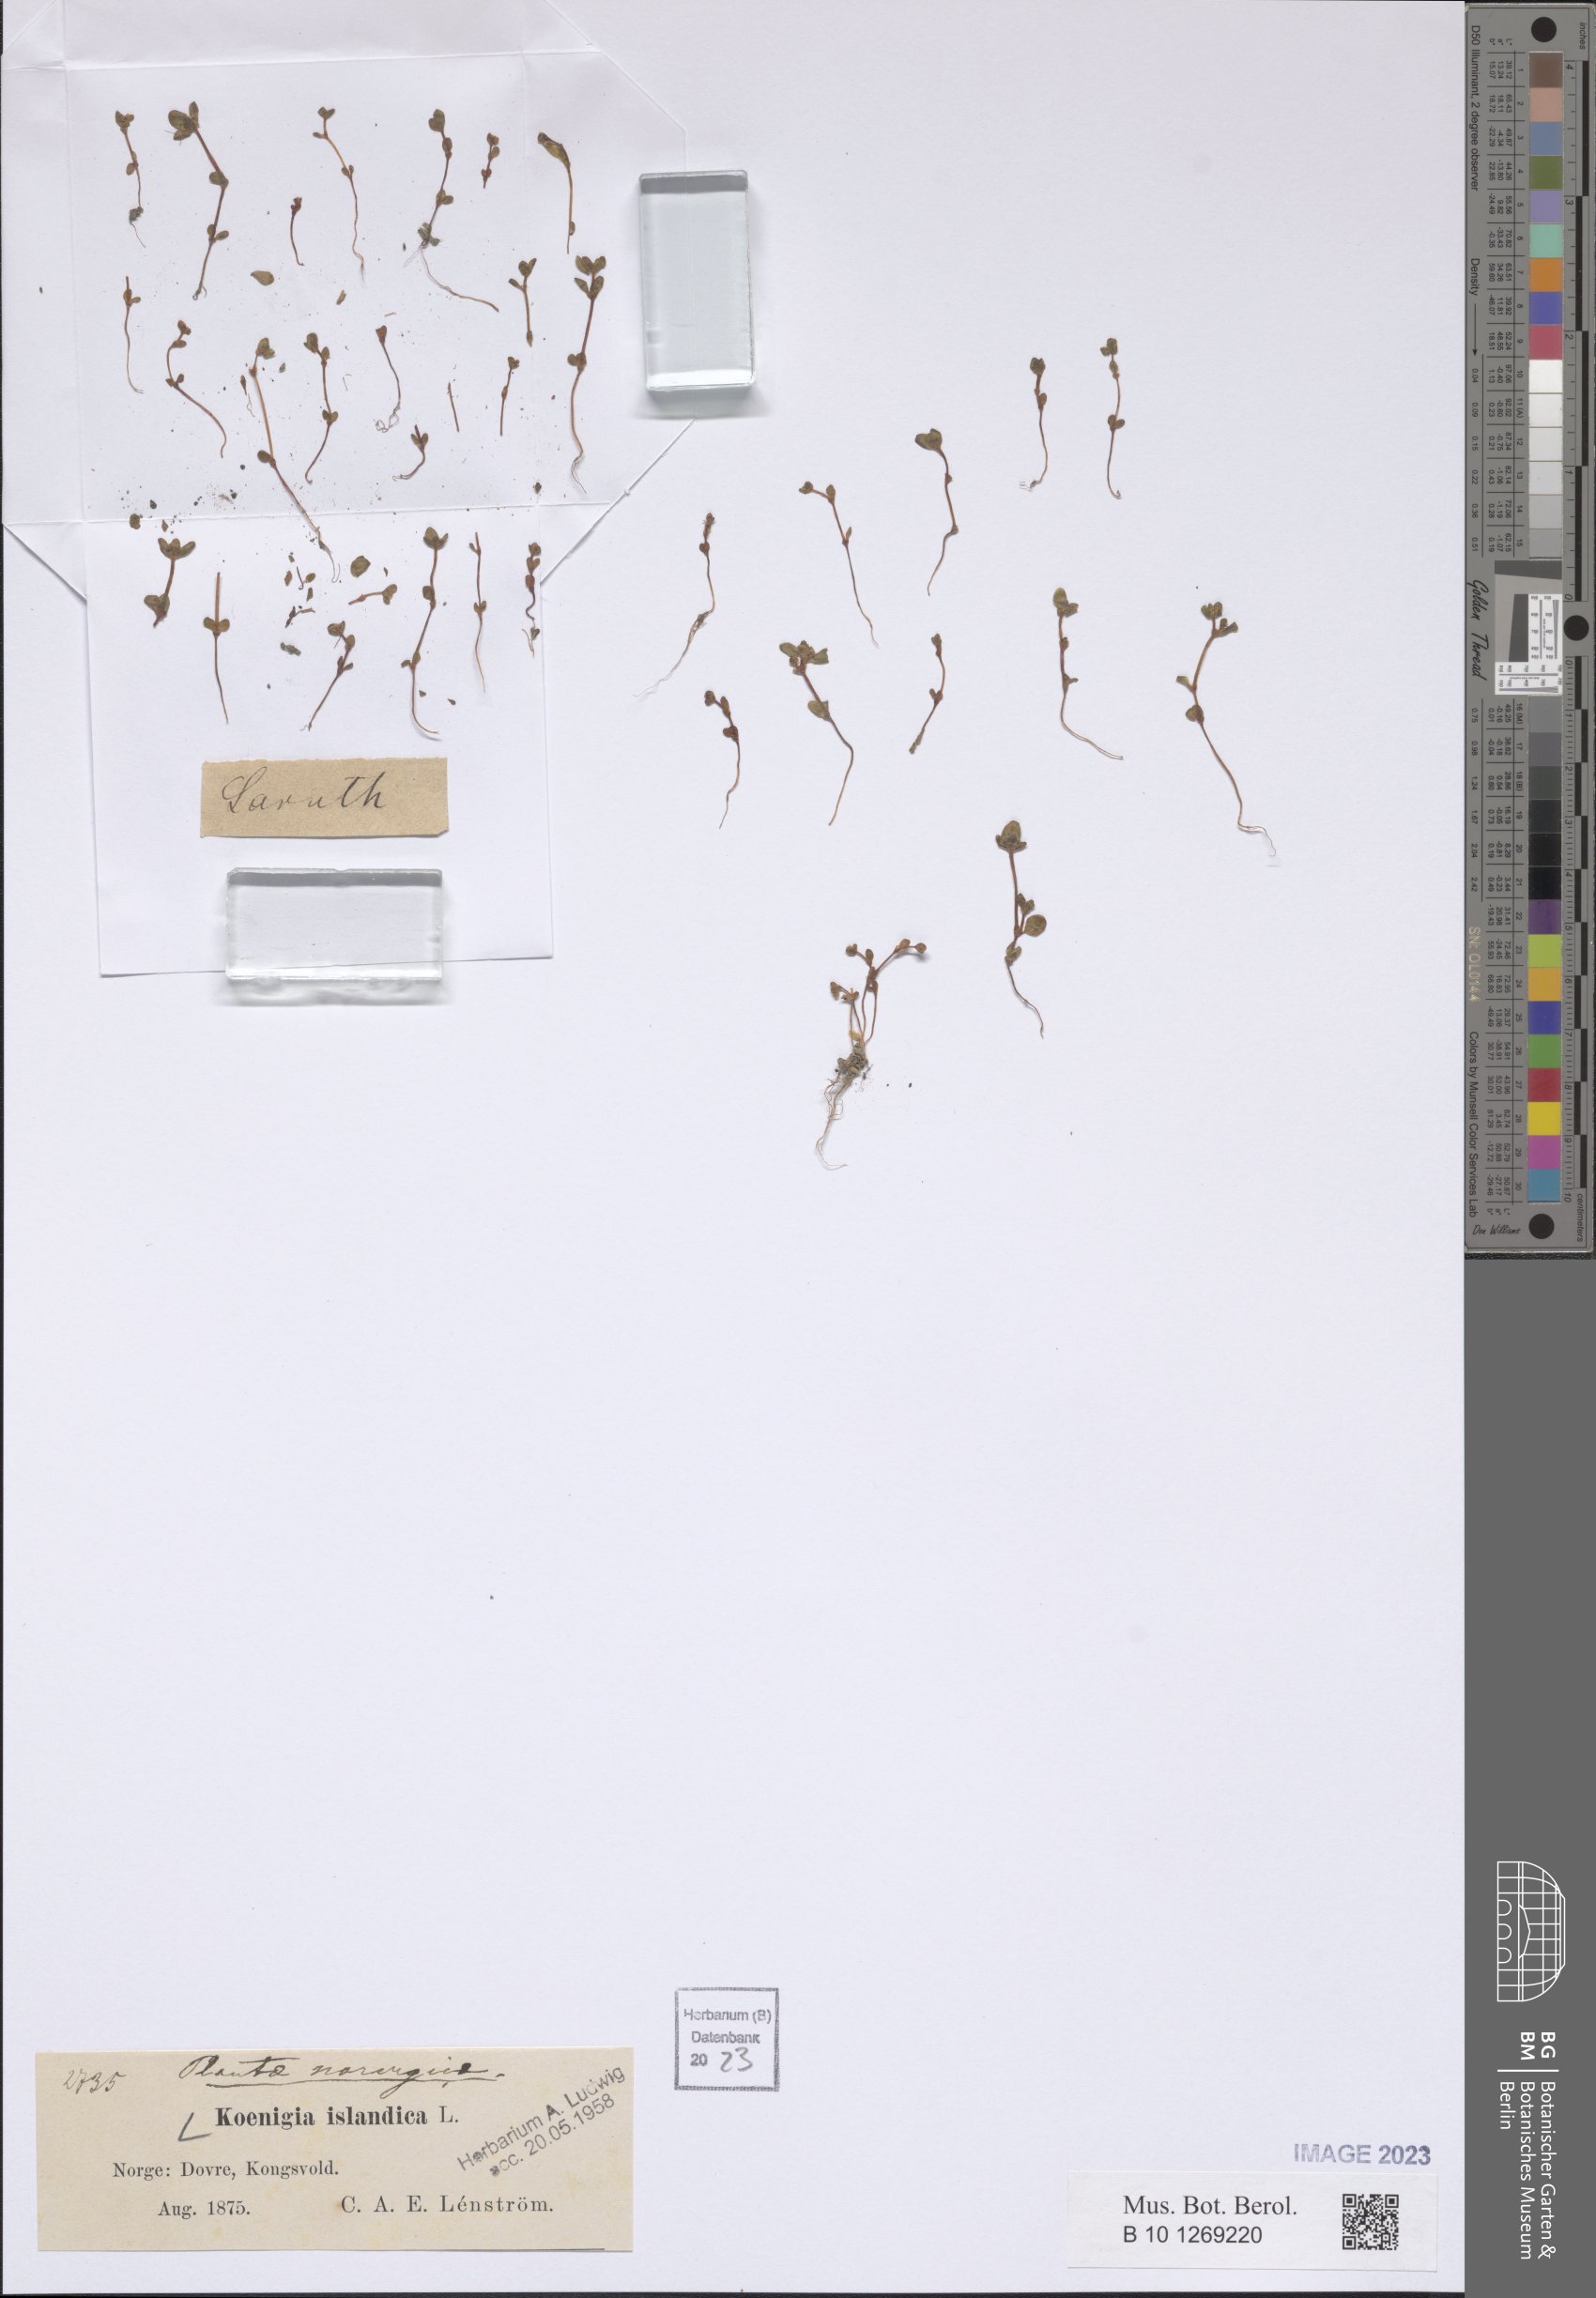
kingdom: Plantae
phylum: Tracheophyta
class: Magnoliopsida
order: Caryophyllales
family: Polygonaceae
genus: Koenigia
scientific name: Koenigia islandica
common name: Iceland-purslane
